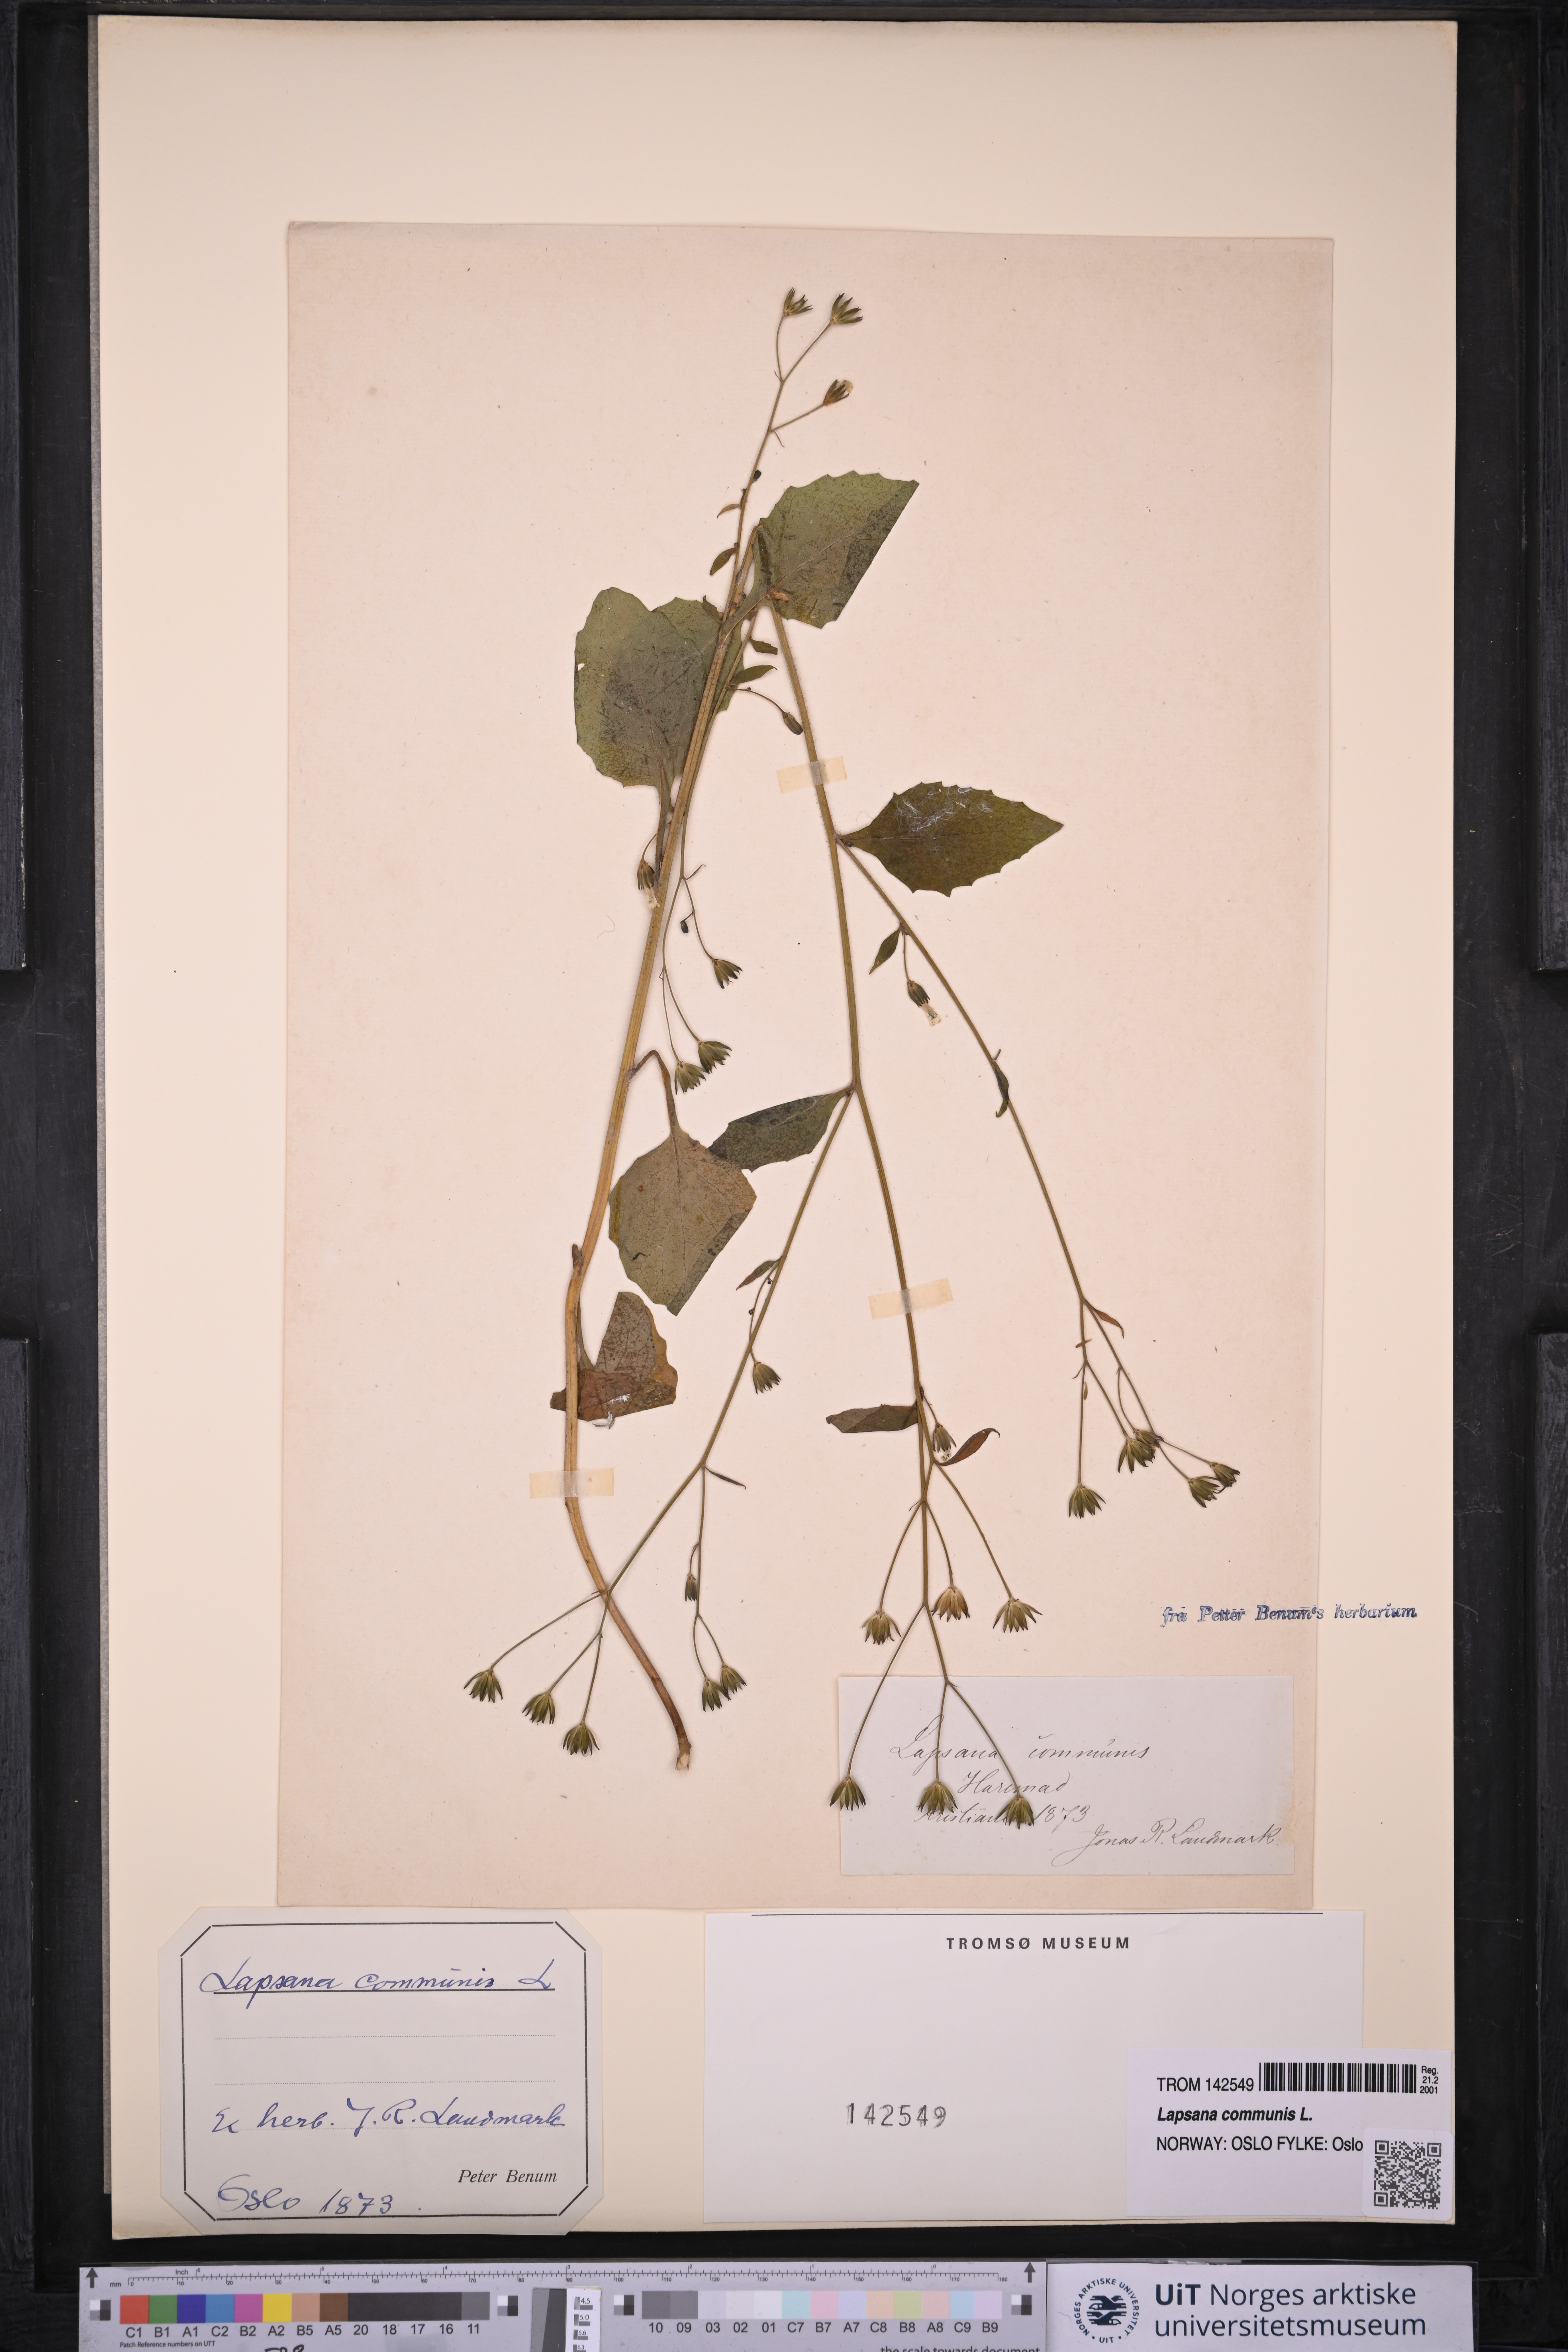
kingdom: Plantae
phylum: Tracheophyta
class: Magnoliopsida
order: Asterales
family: Asteraceae
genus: Lapsana
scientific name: Lapsana communis
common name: Nipplewort
